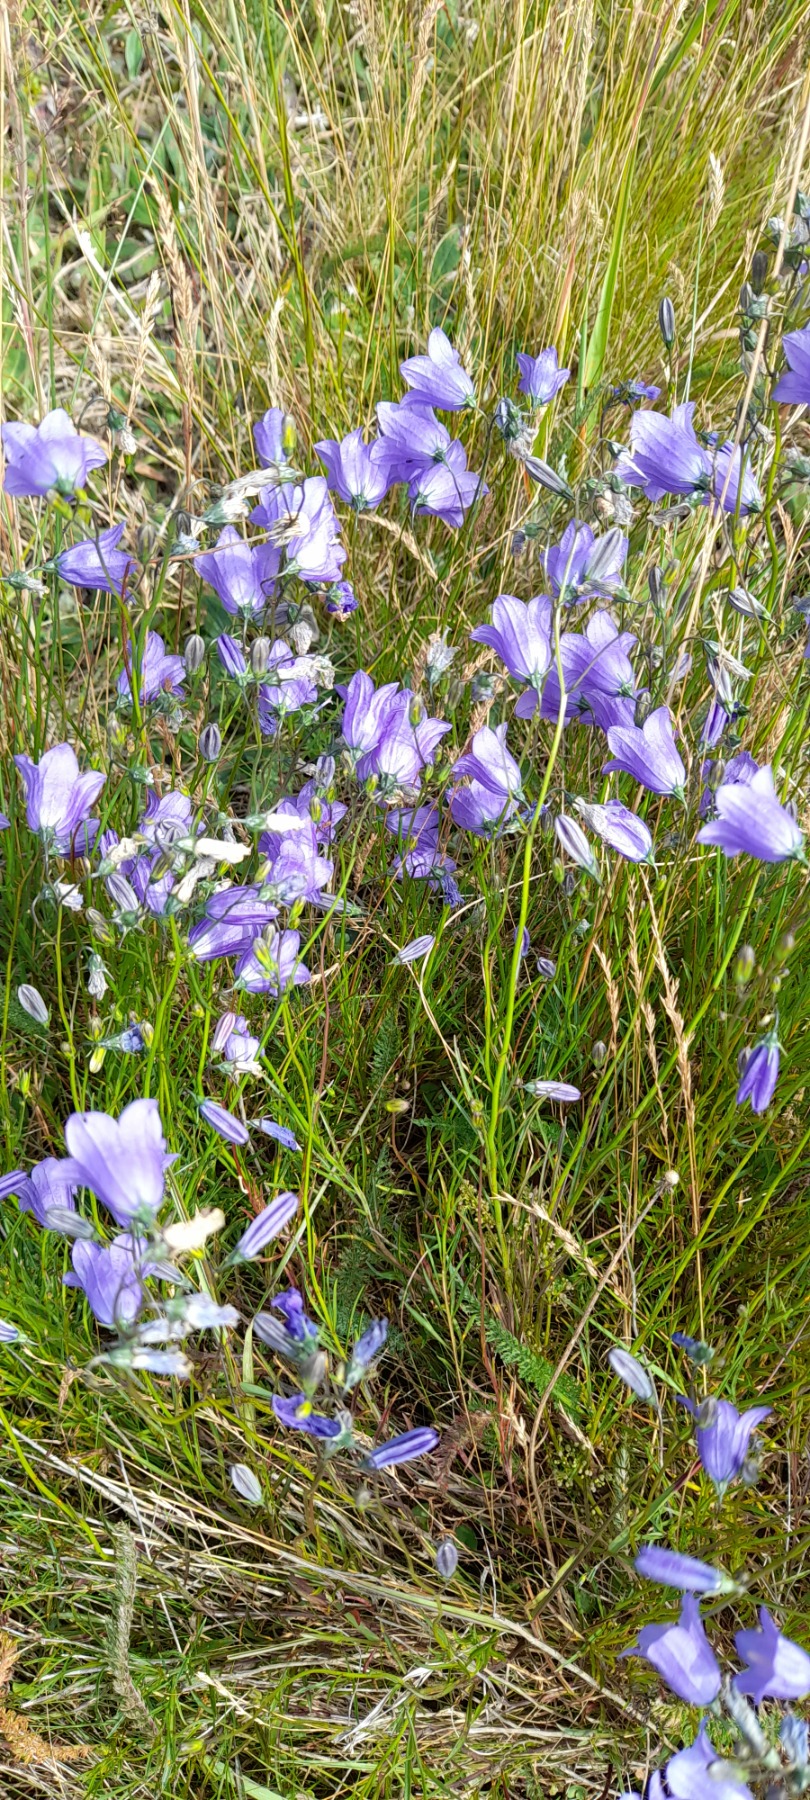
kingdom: Plantae
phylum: Tracheophyta
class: Magnoliopsida
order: Asterales
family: Campanulaceae
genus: Campanula
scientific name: Campanula rotundifolia
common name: Liden klokke
